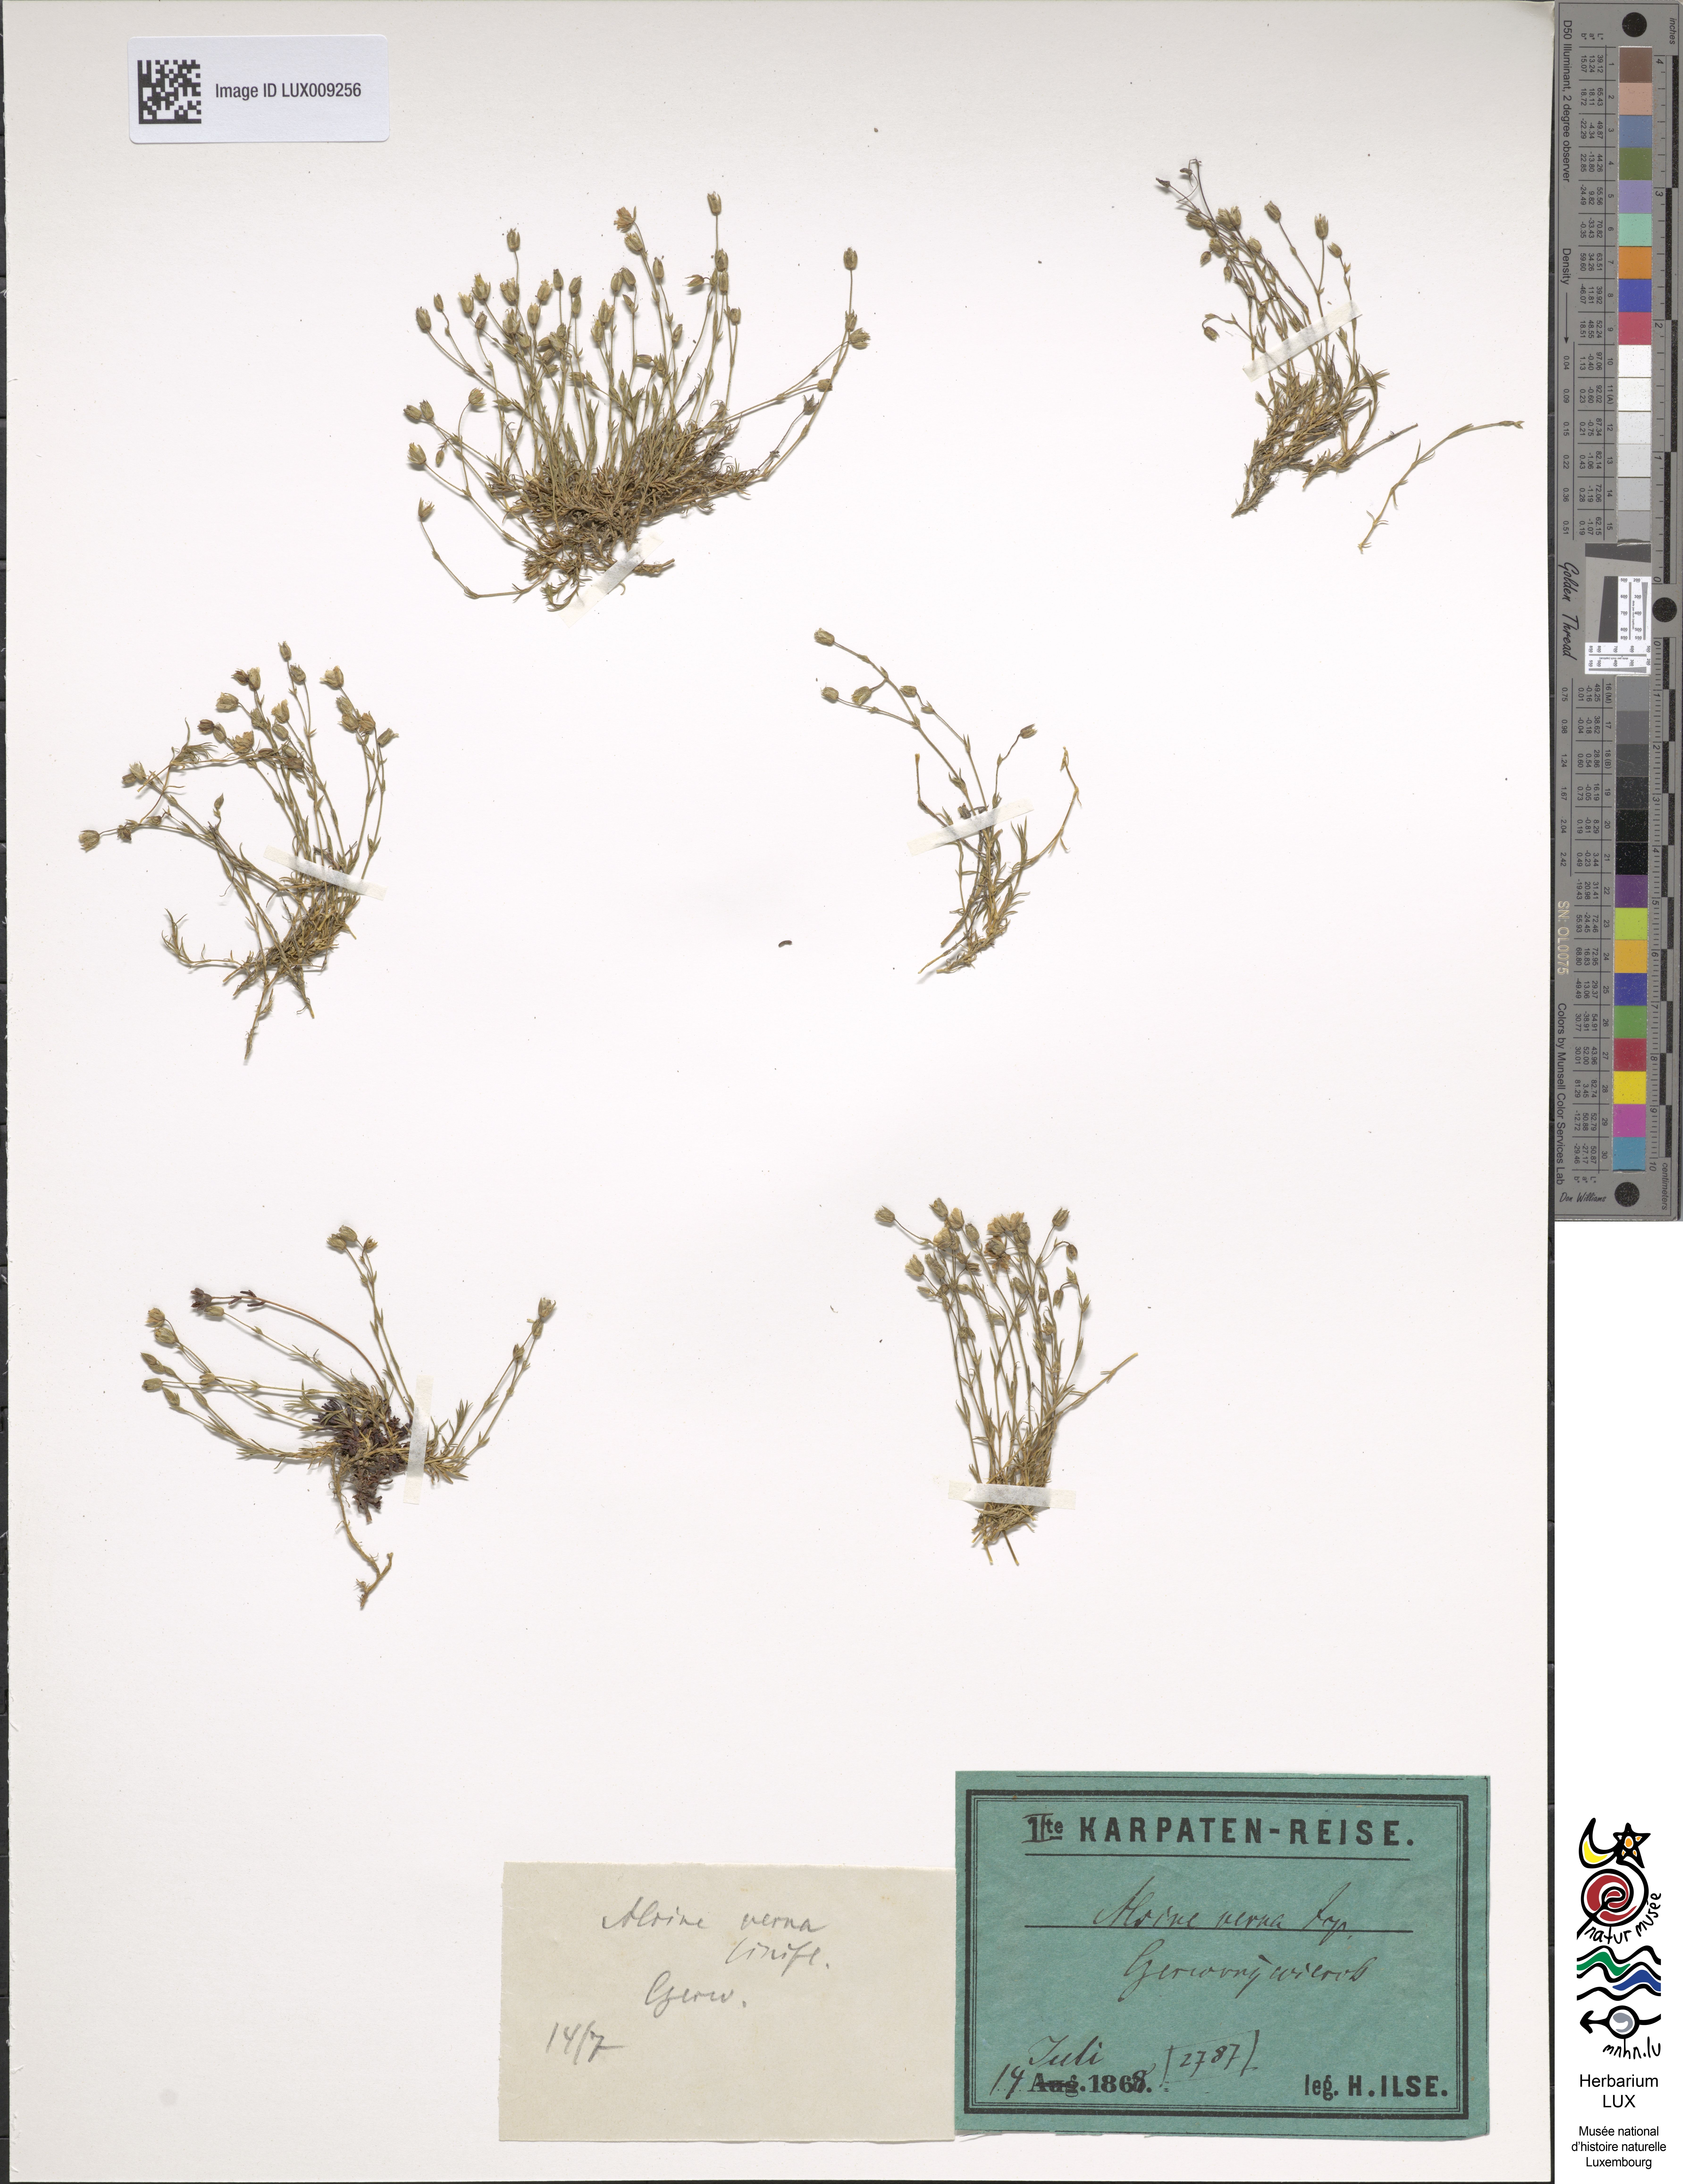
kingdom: Plantae
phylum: Tracheophyta
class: Magnoliopsida
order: Caryophyllales
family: Caryophyllaceae
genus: Sabulina
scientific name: Sabulina verna
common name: Spring sandwort
